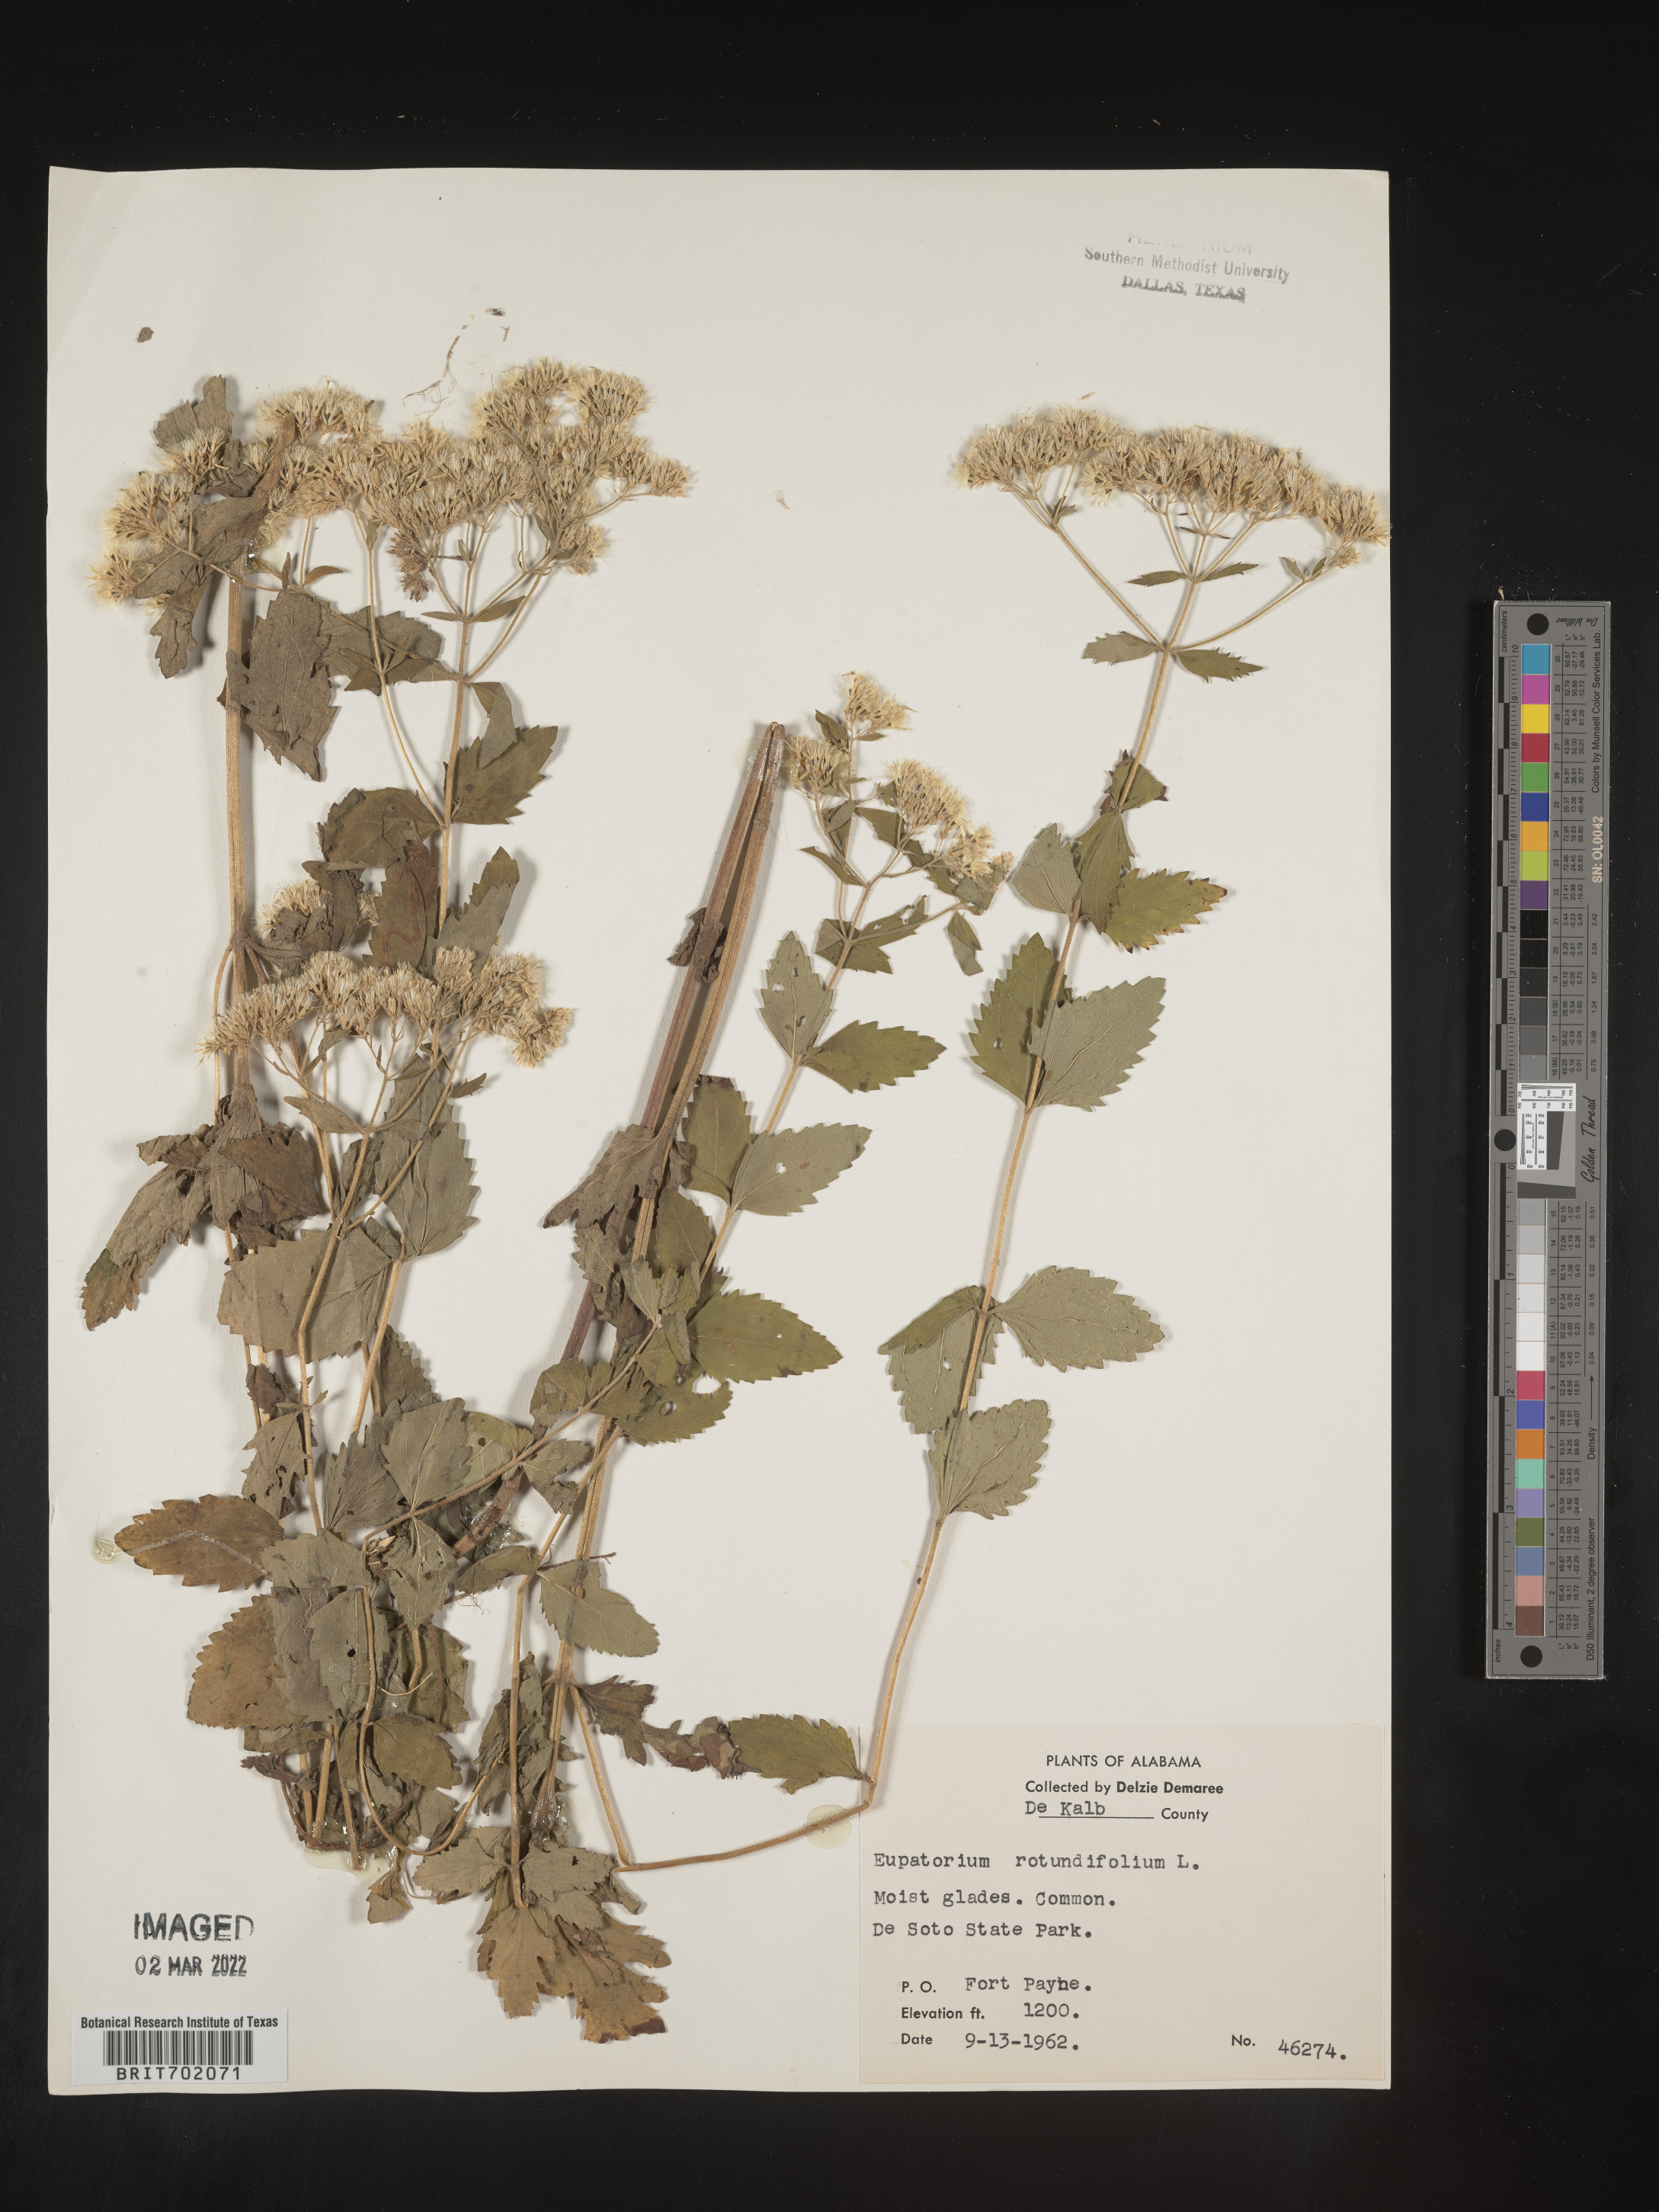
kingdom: Plantae
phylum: Tracheophyta
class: Magnoliopsida
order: Asterales
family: Asteraceae
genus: Eupatorium
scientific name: Eupatorium rotundifolium
